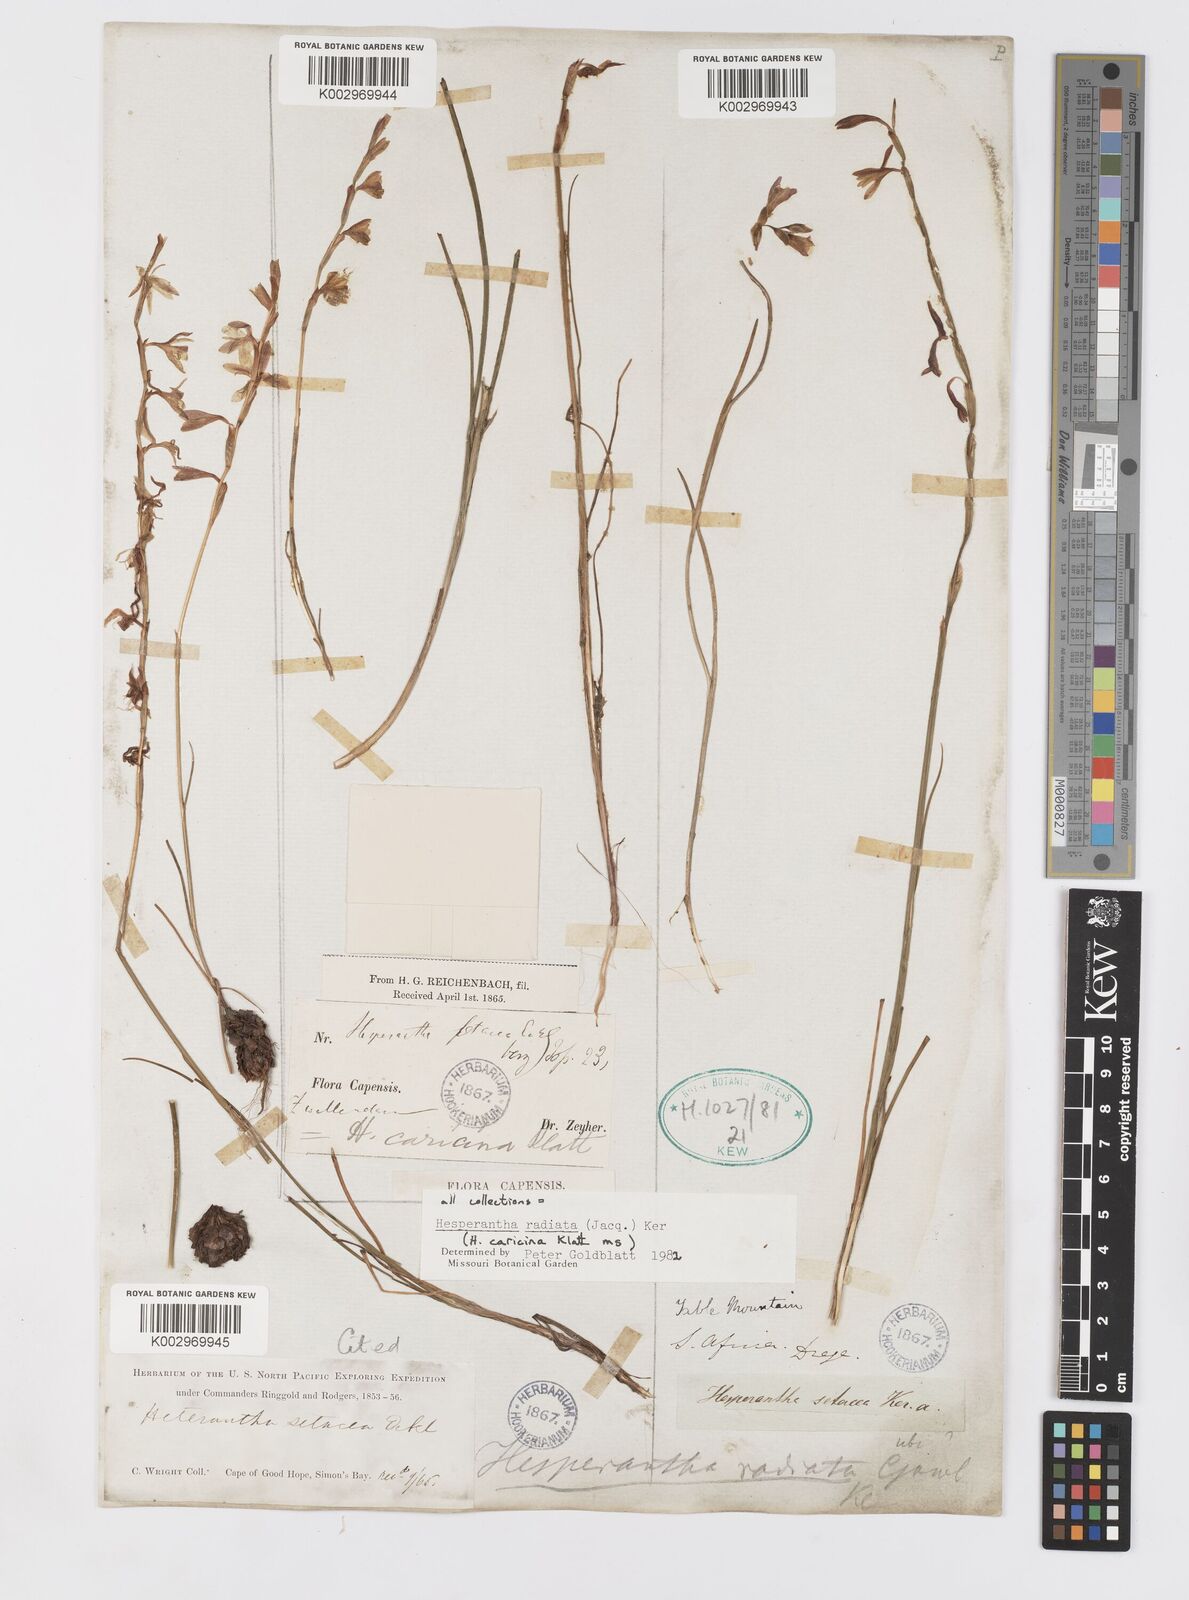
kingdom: Plantae
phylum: Tracheophyta
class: Liliopsida
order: Asparagales
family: Iridaceae
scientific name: Iridaceae
